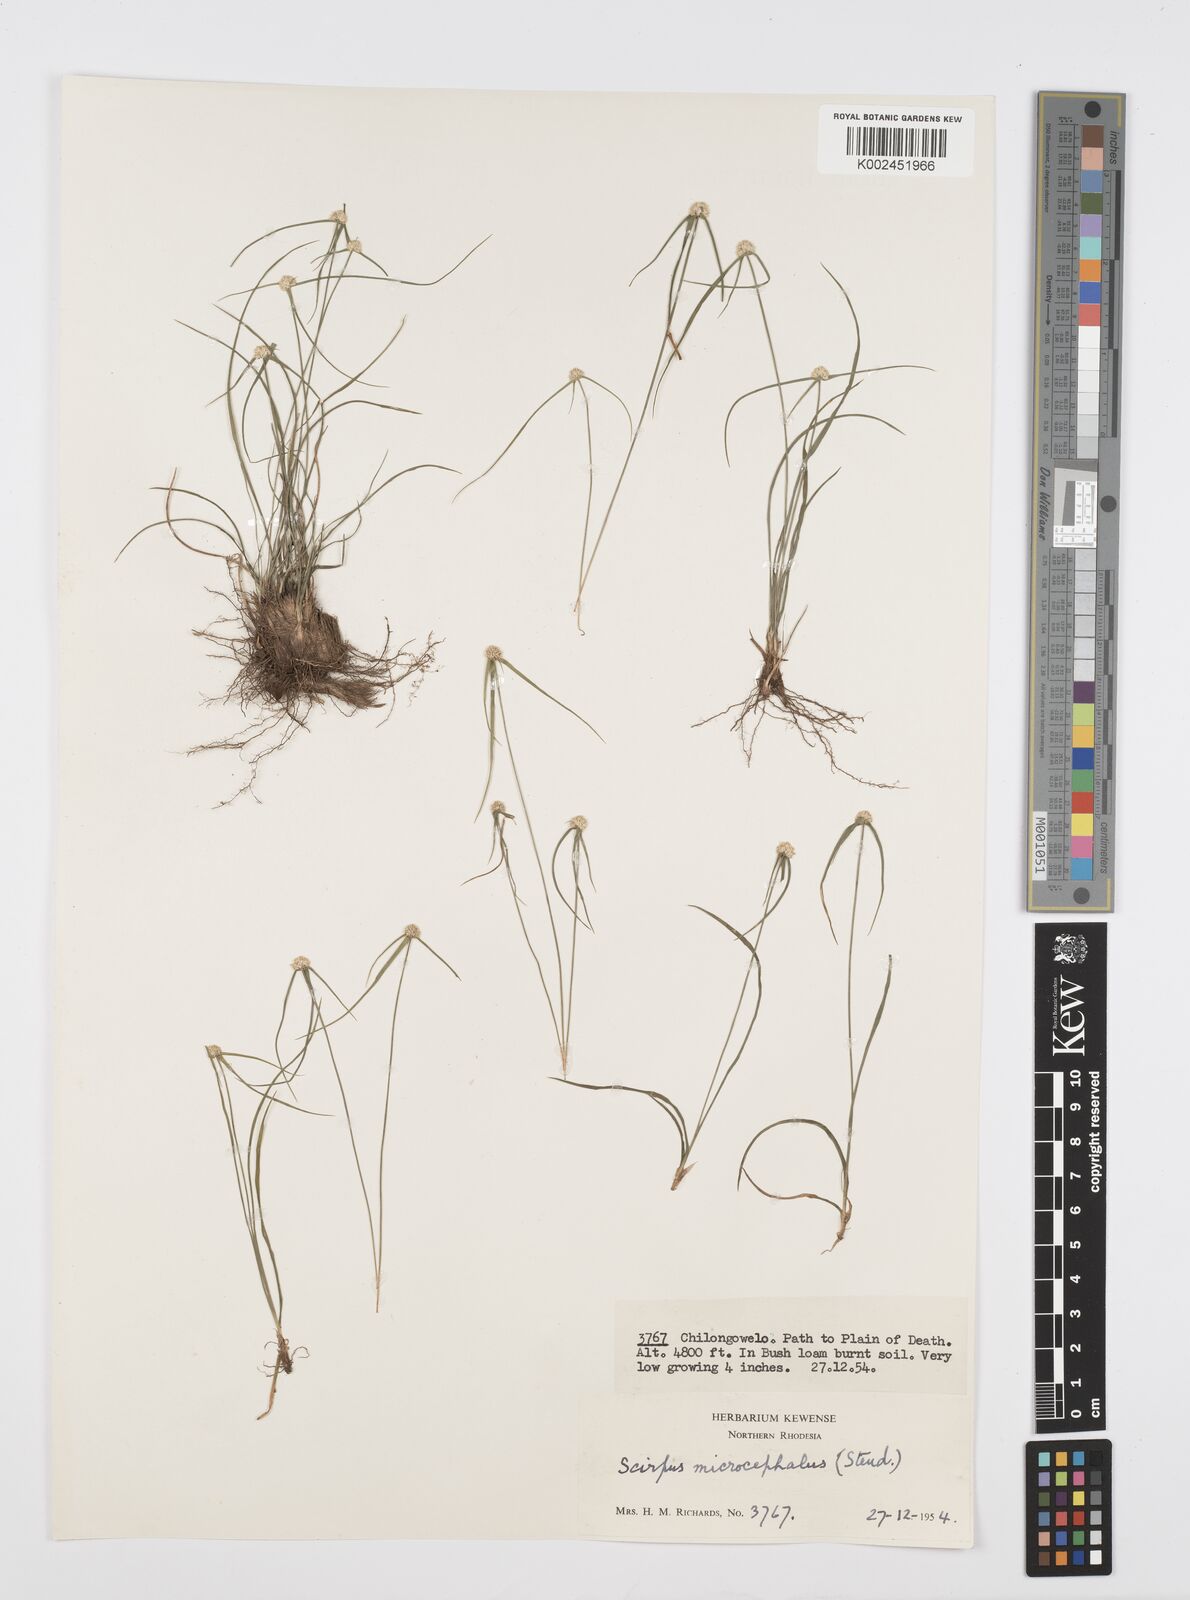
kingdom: Plantae
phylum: Tracheophyta
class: Liliopsida
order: Poales
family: Cyperaceae
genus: Cyperus
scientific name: Cyperus microcephalus
